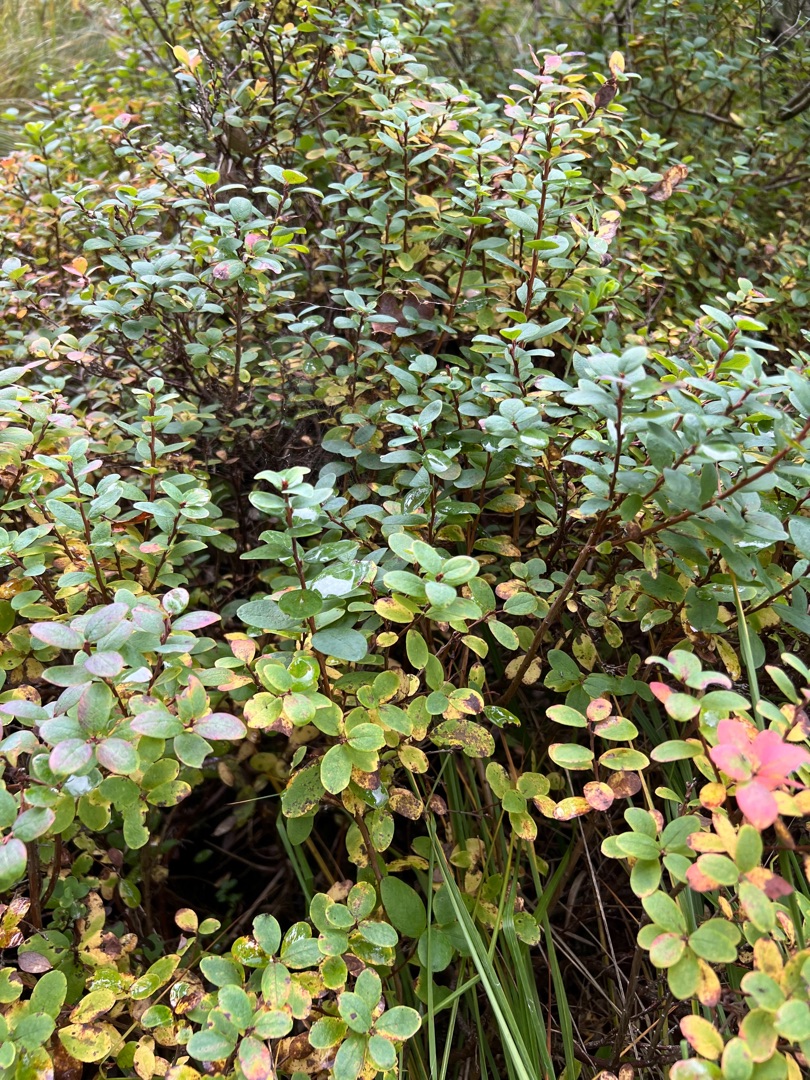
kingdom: Plantae
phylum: Tracheophyta
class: Magnoliopsida
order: Ericales
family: Ericaceae
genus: Vaccinium
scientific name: Vaccinium uliginosum
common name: Mose-bølle
